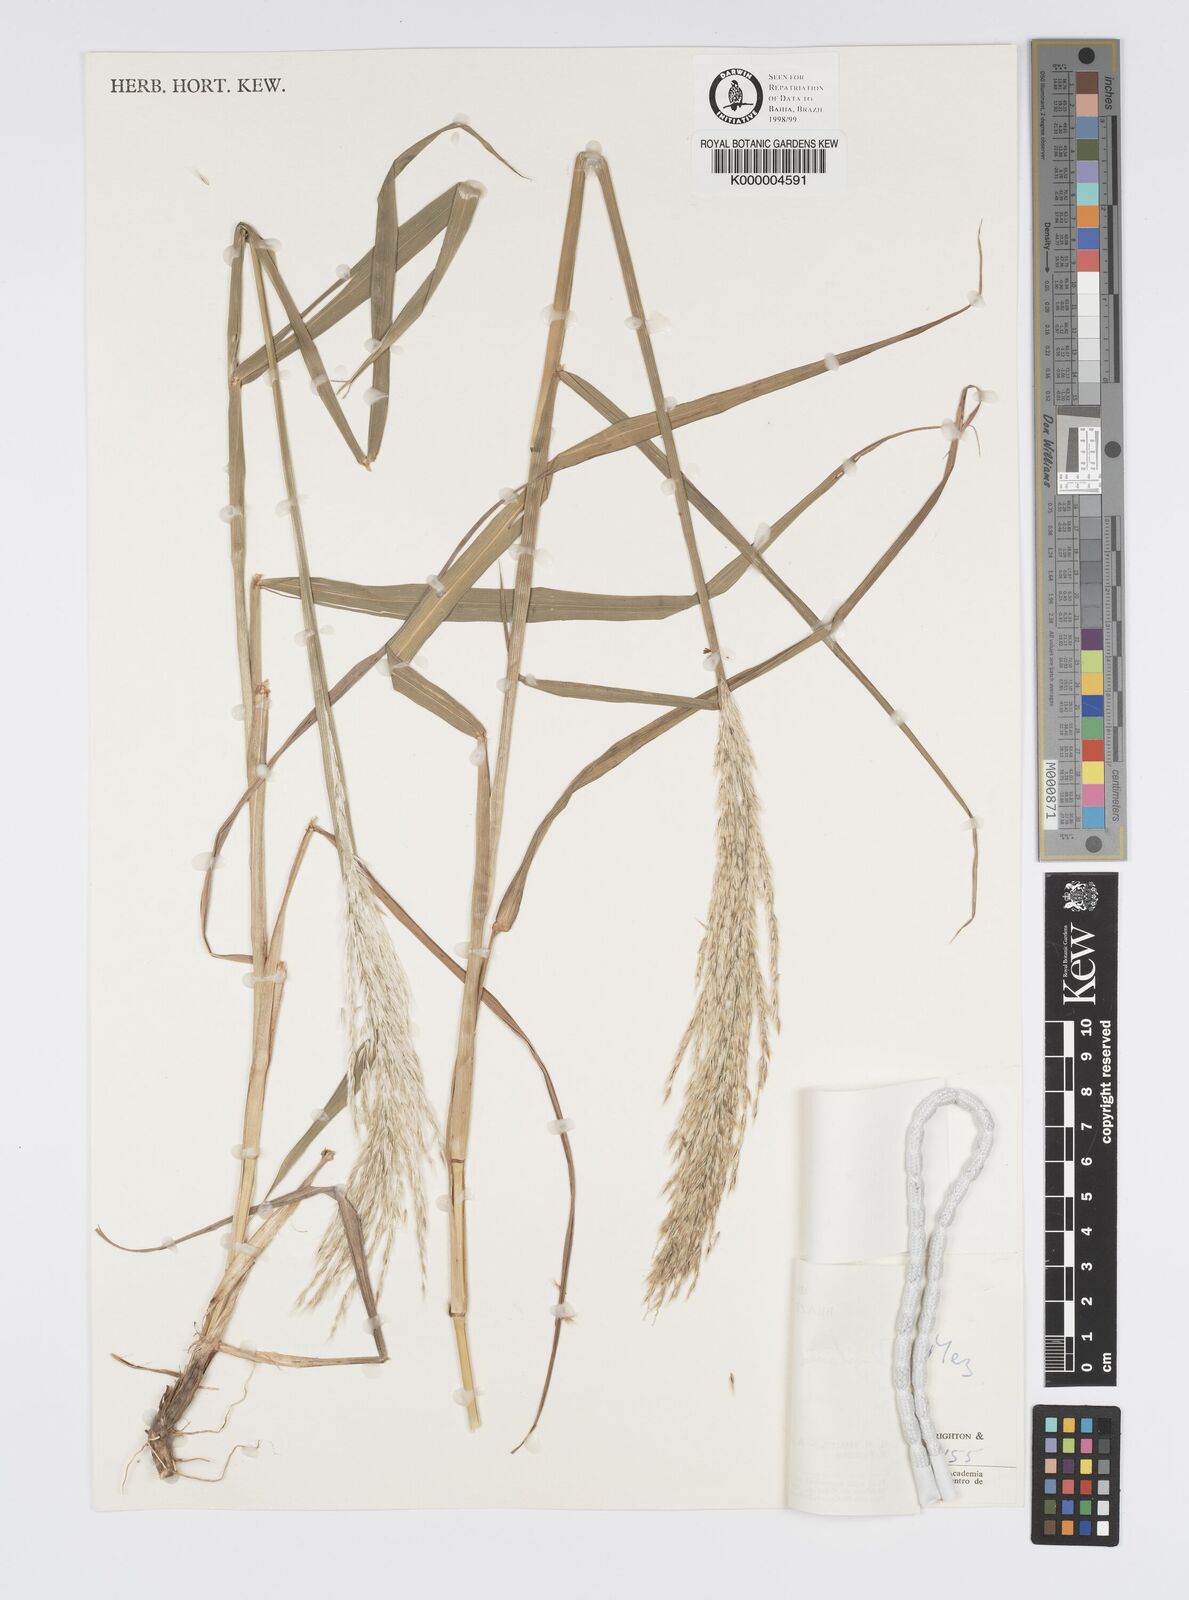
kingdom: Plantae
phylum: Tracheophyta
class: Liliopsida
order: Poales
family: Poaceae
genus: Digitaria
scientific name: Digitaria
